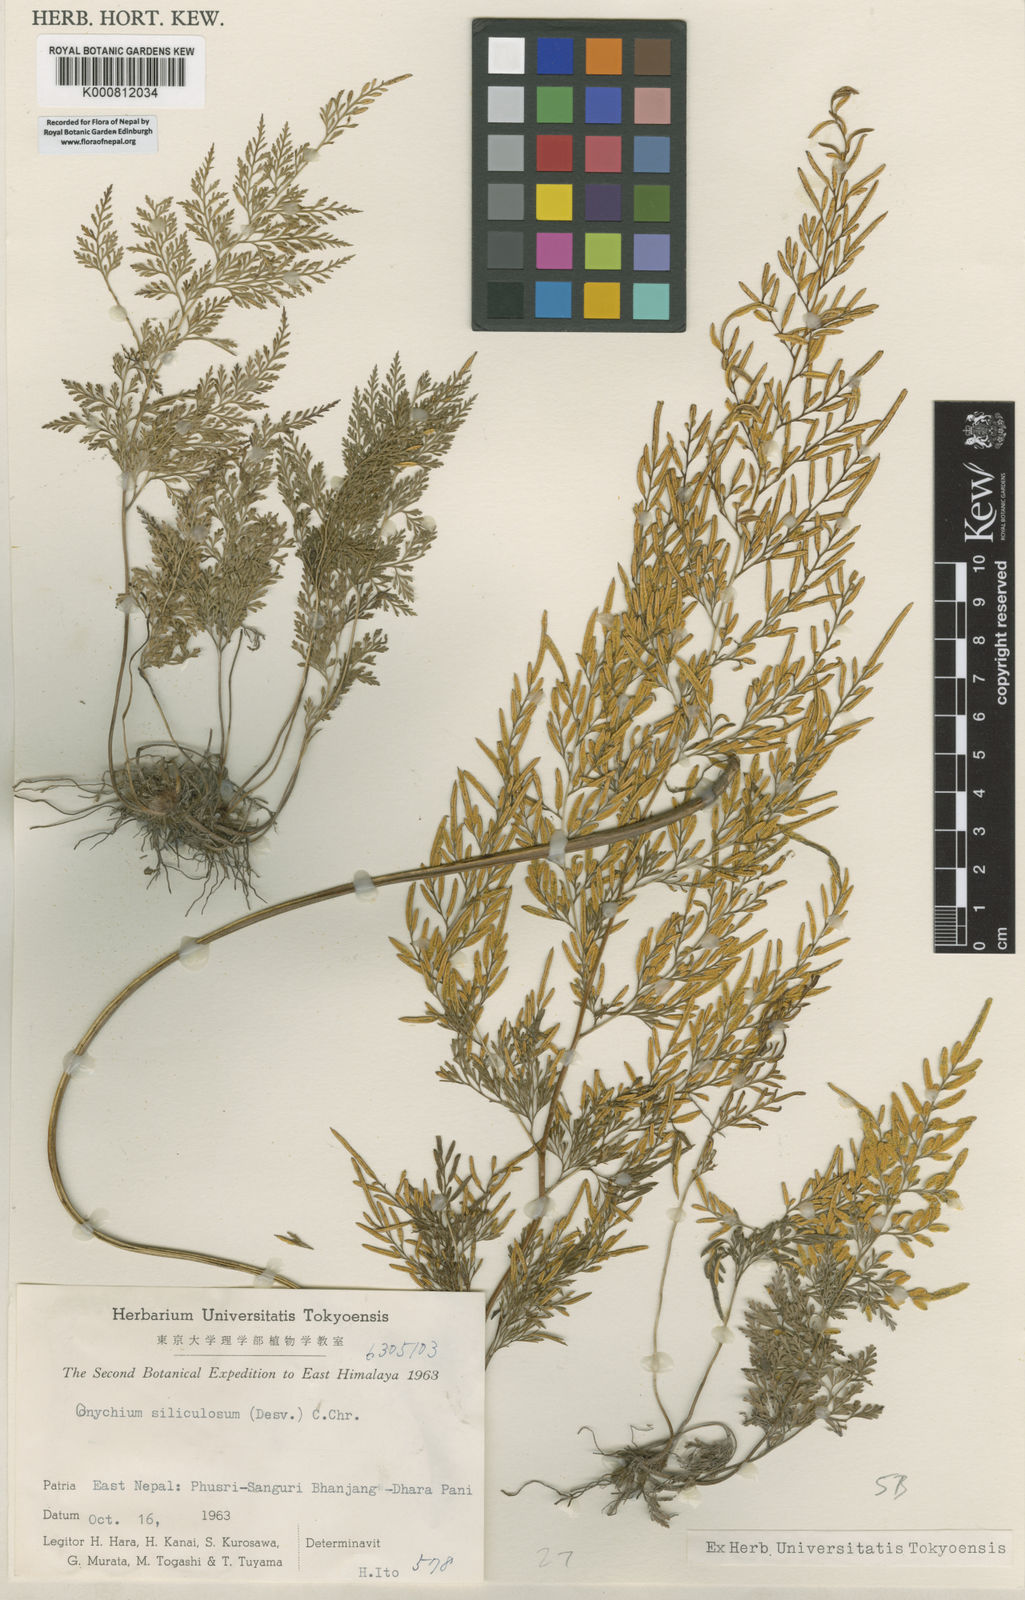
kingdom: Plantae
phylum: Tracheophyta
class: Polypodiopsida
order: Polypodiales
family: Pteridaceae
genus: Onychium
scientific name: Onychium siliculosum
